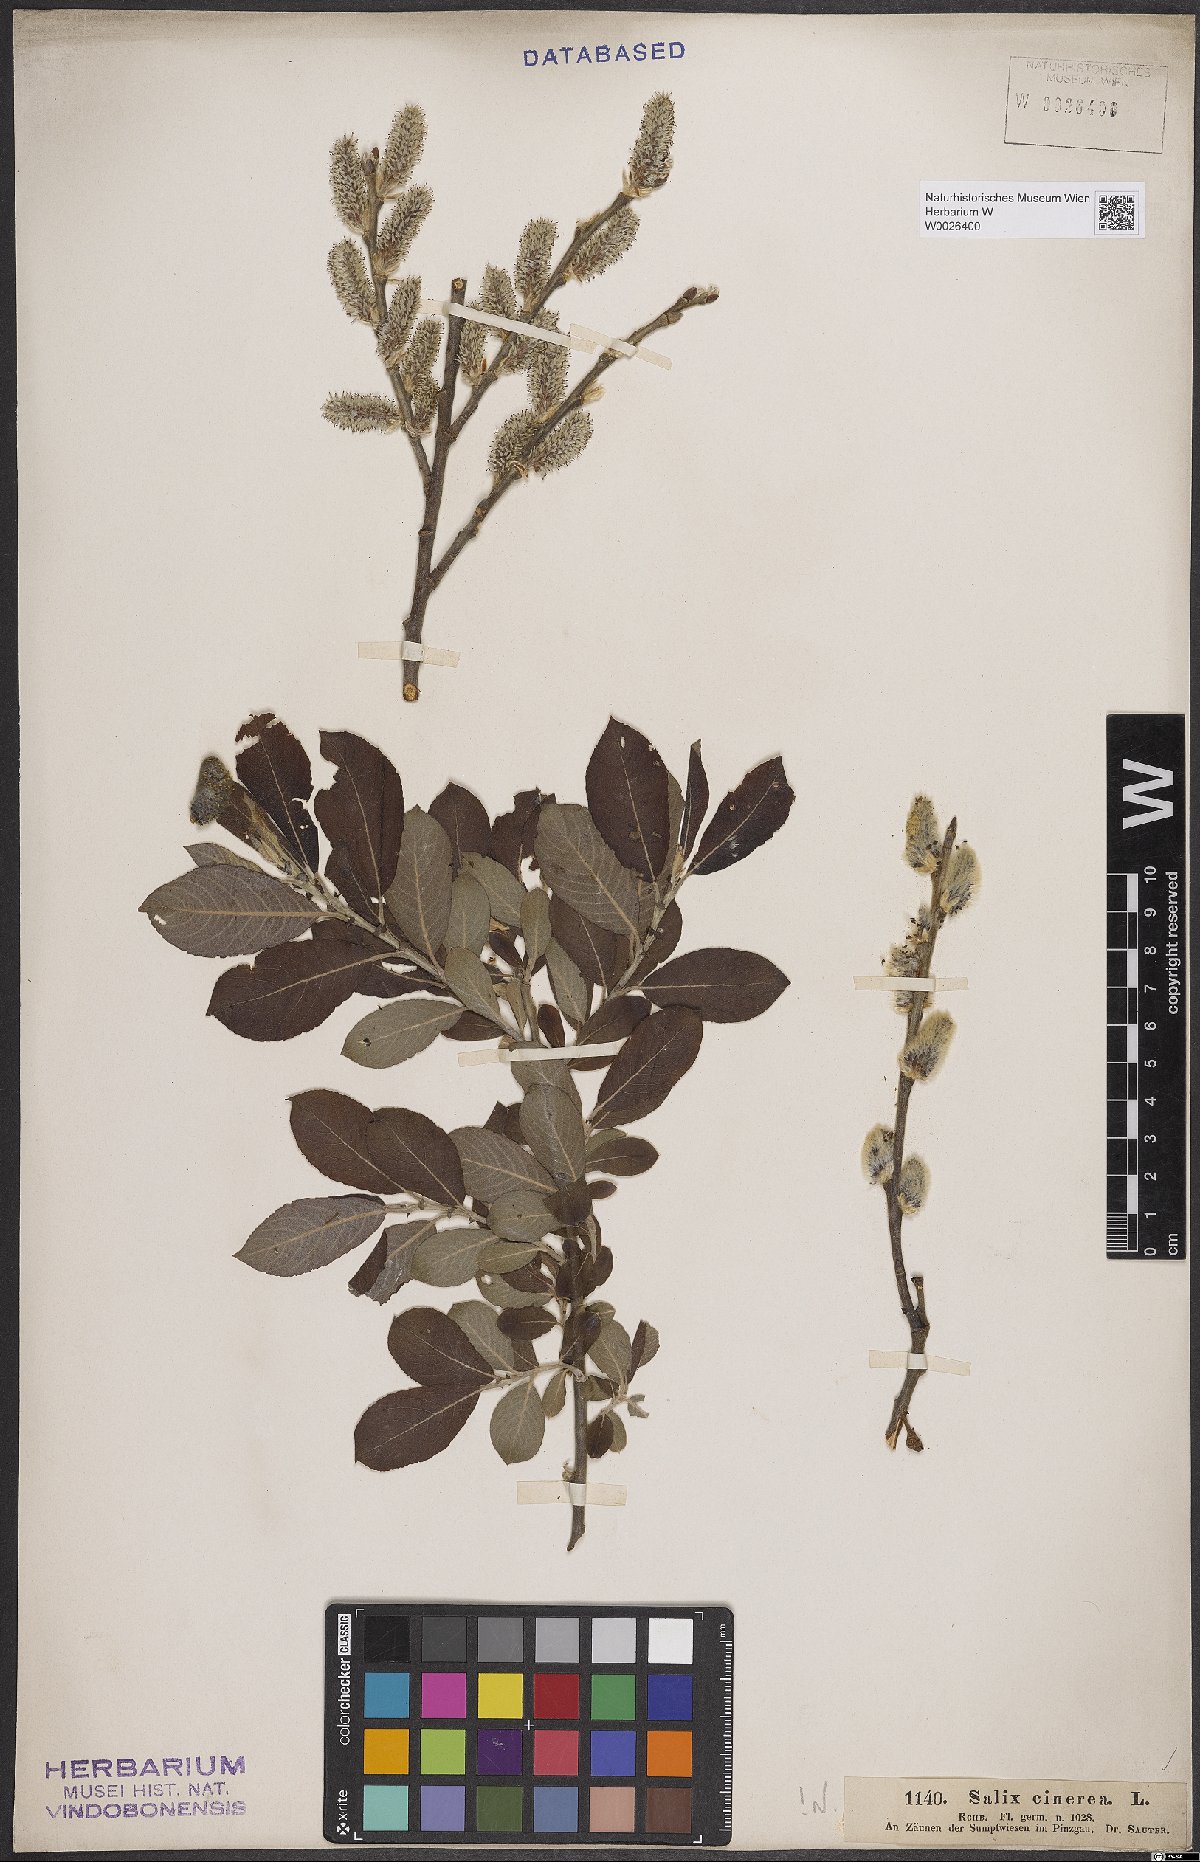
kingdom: Plantae
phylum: Tracheophyta
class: Magnoliopsida
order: Malpighiales
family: Salicaceae
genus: Salix
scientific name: Salix cinerea
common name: Common sallow
